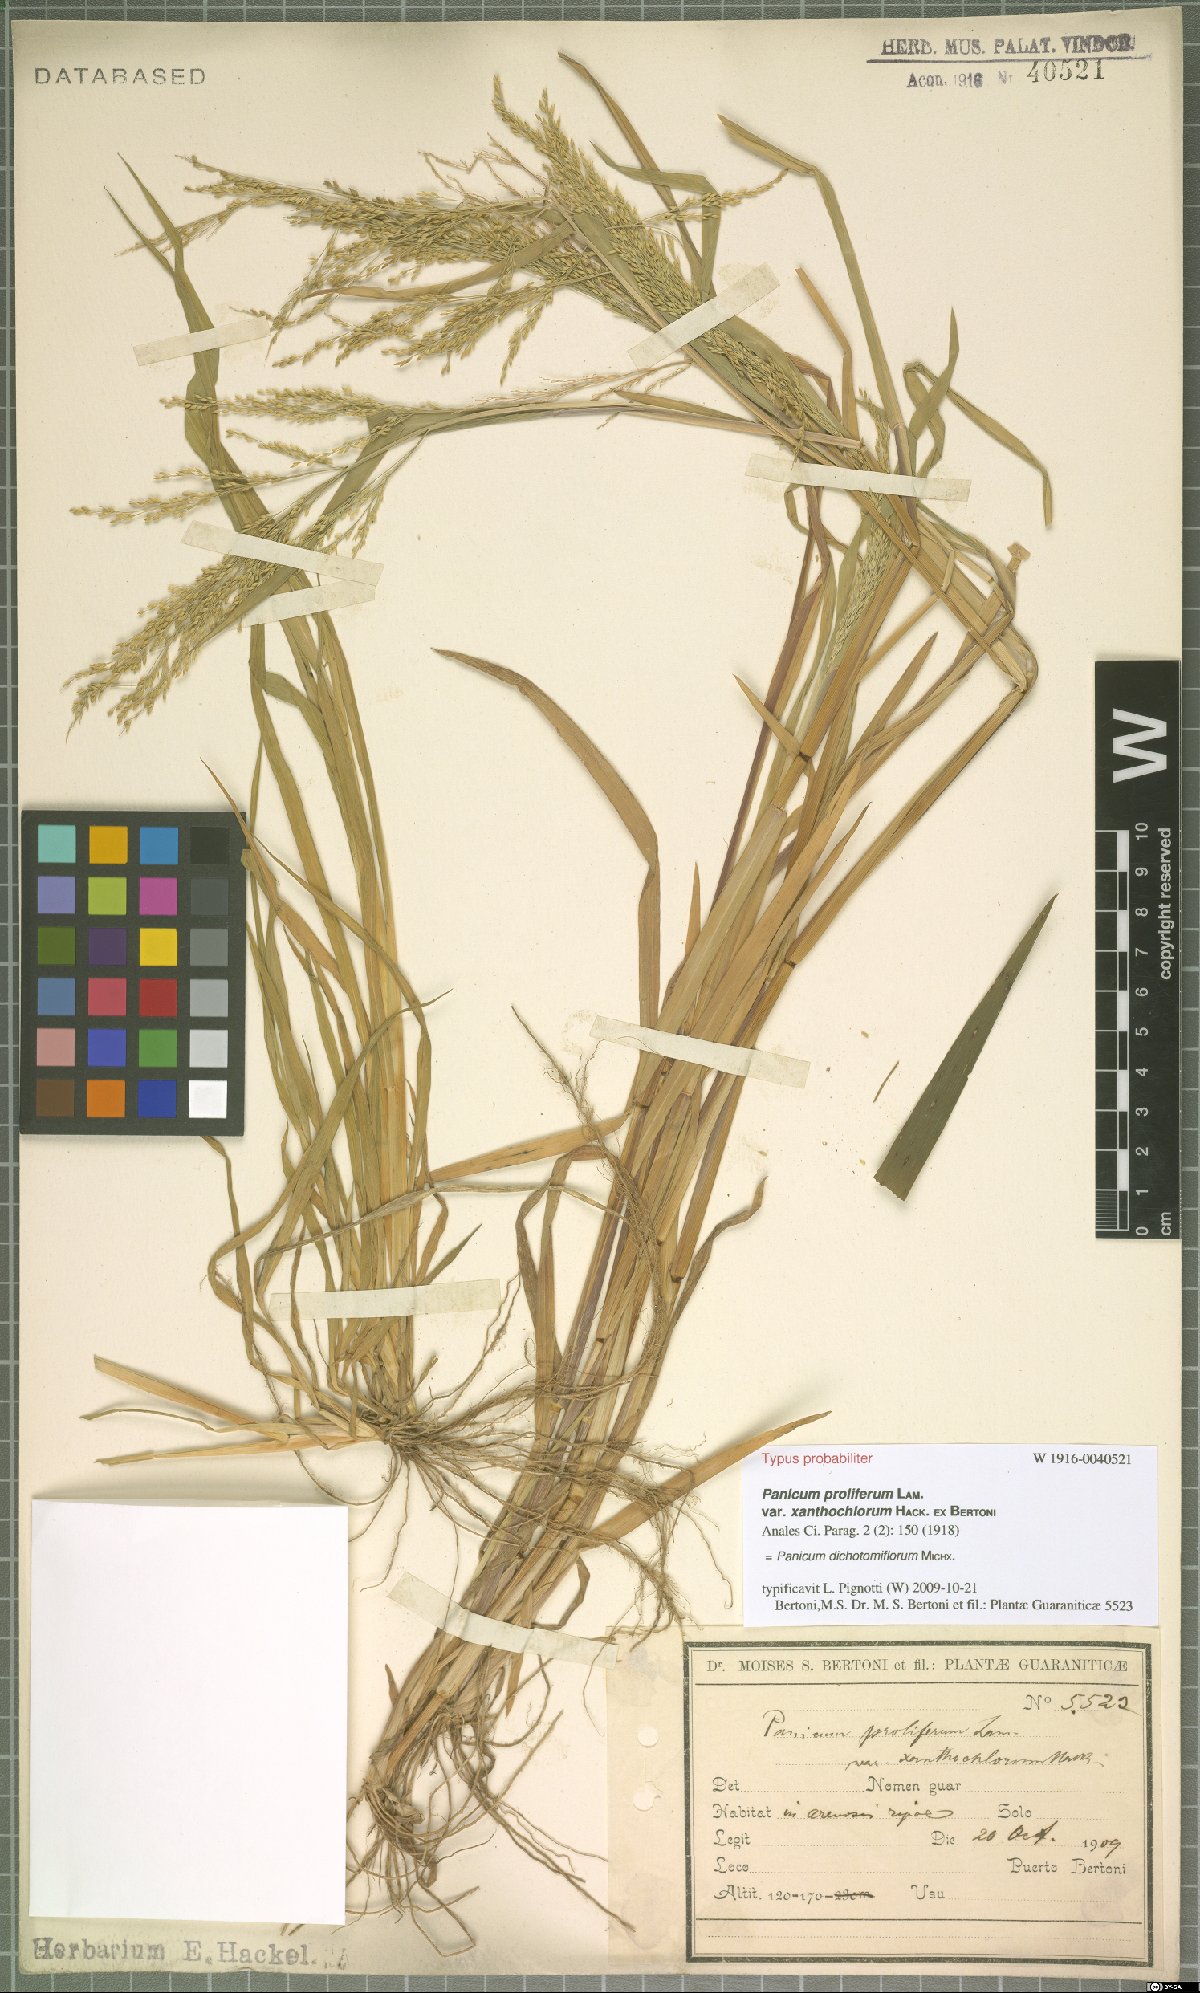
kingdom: Plantae
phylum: Tracheophyta
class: Liliopsida
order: Poales
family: Poaceae
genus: Panicum
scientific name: Panicum dichotomiflorum
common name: Autumn millet
